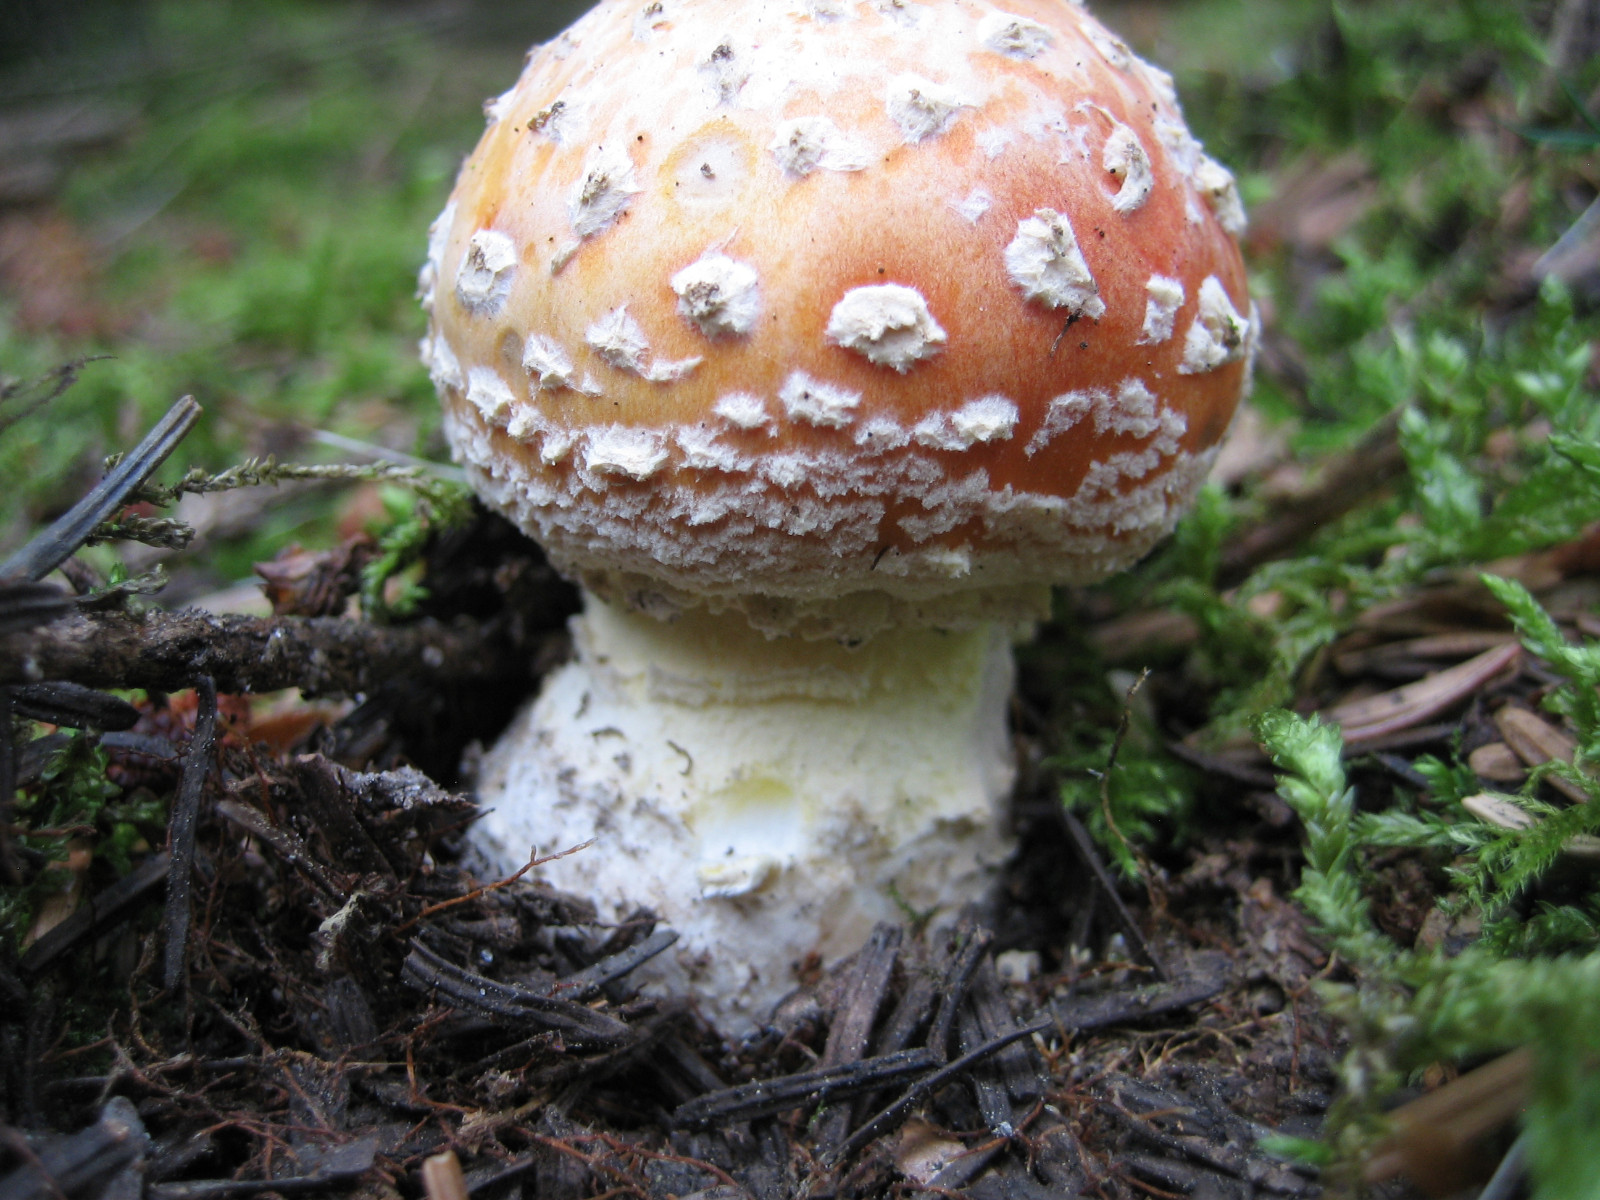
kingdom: Fungi
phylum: Basidiomycota
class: Agaricomycetes
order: Agaricales
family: Amanitaceae
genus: Amanita
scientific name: Amanita muscaria
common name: rød fluesvamp
